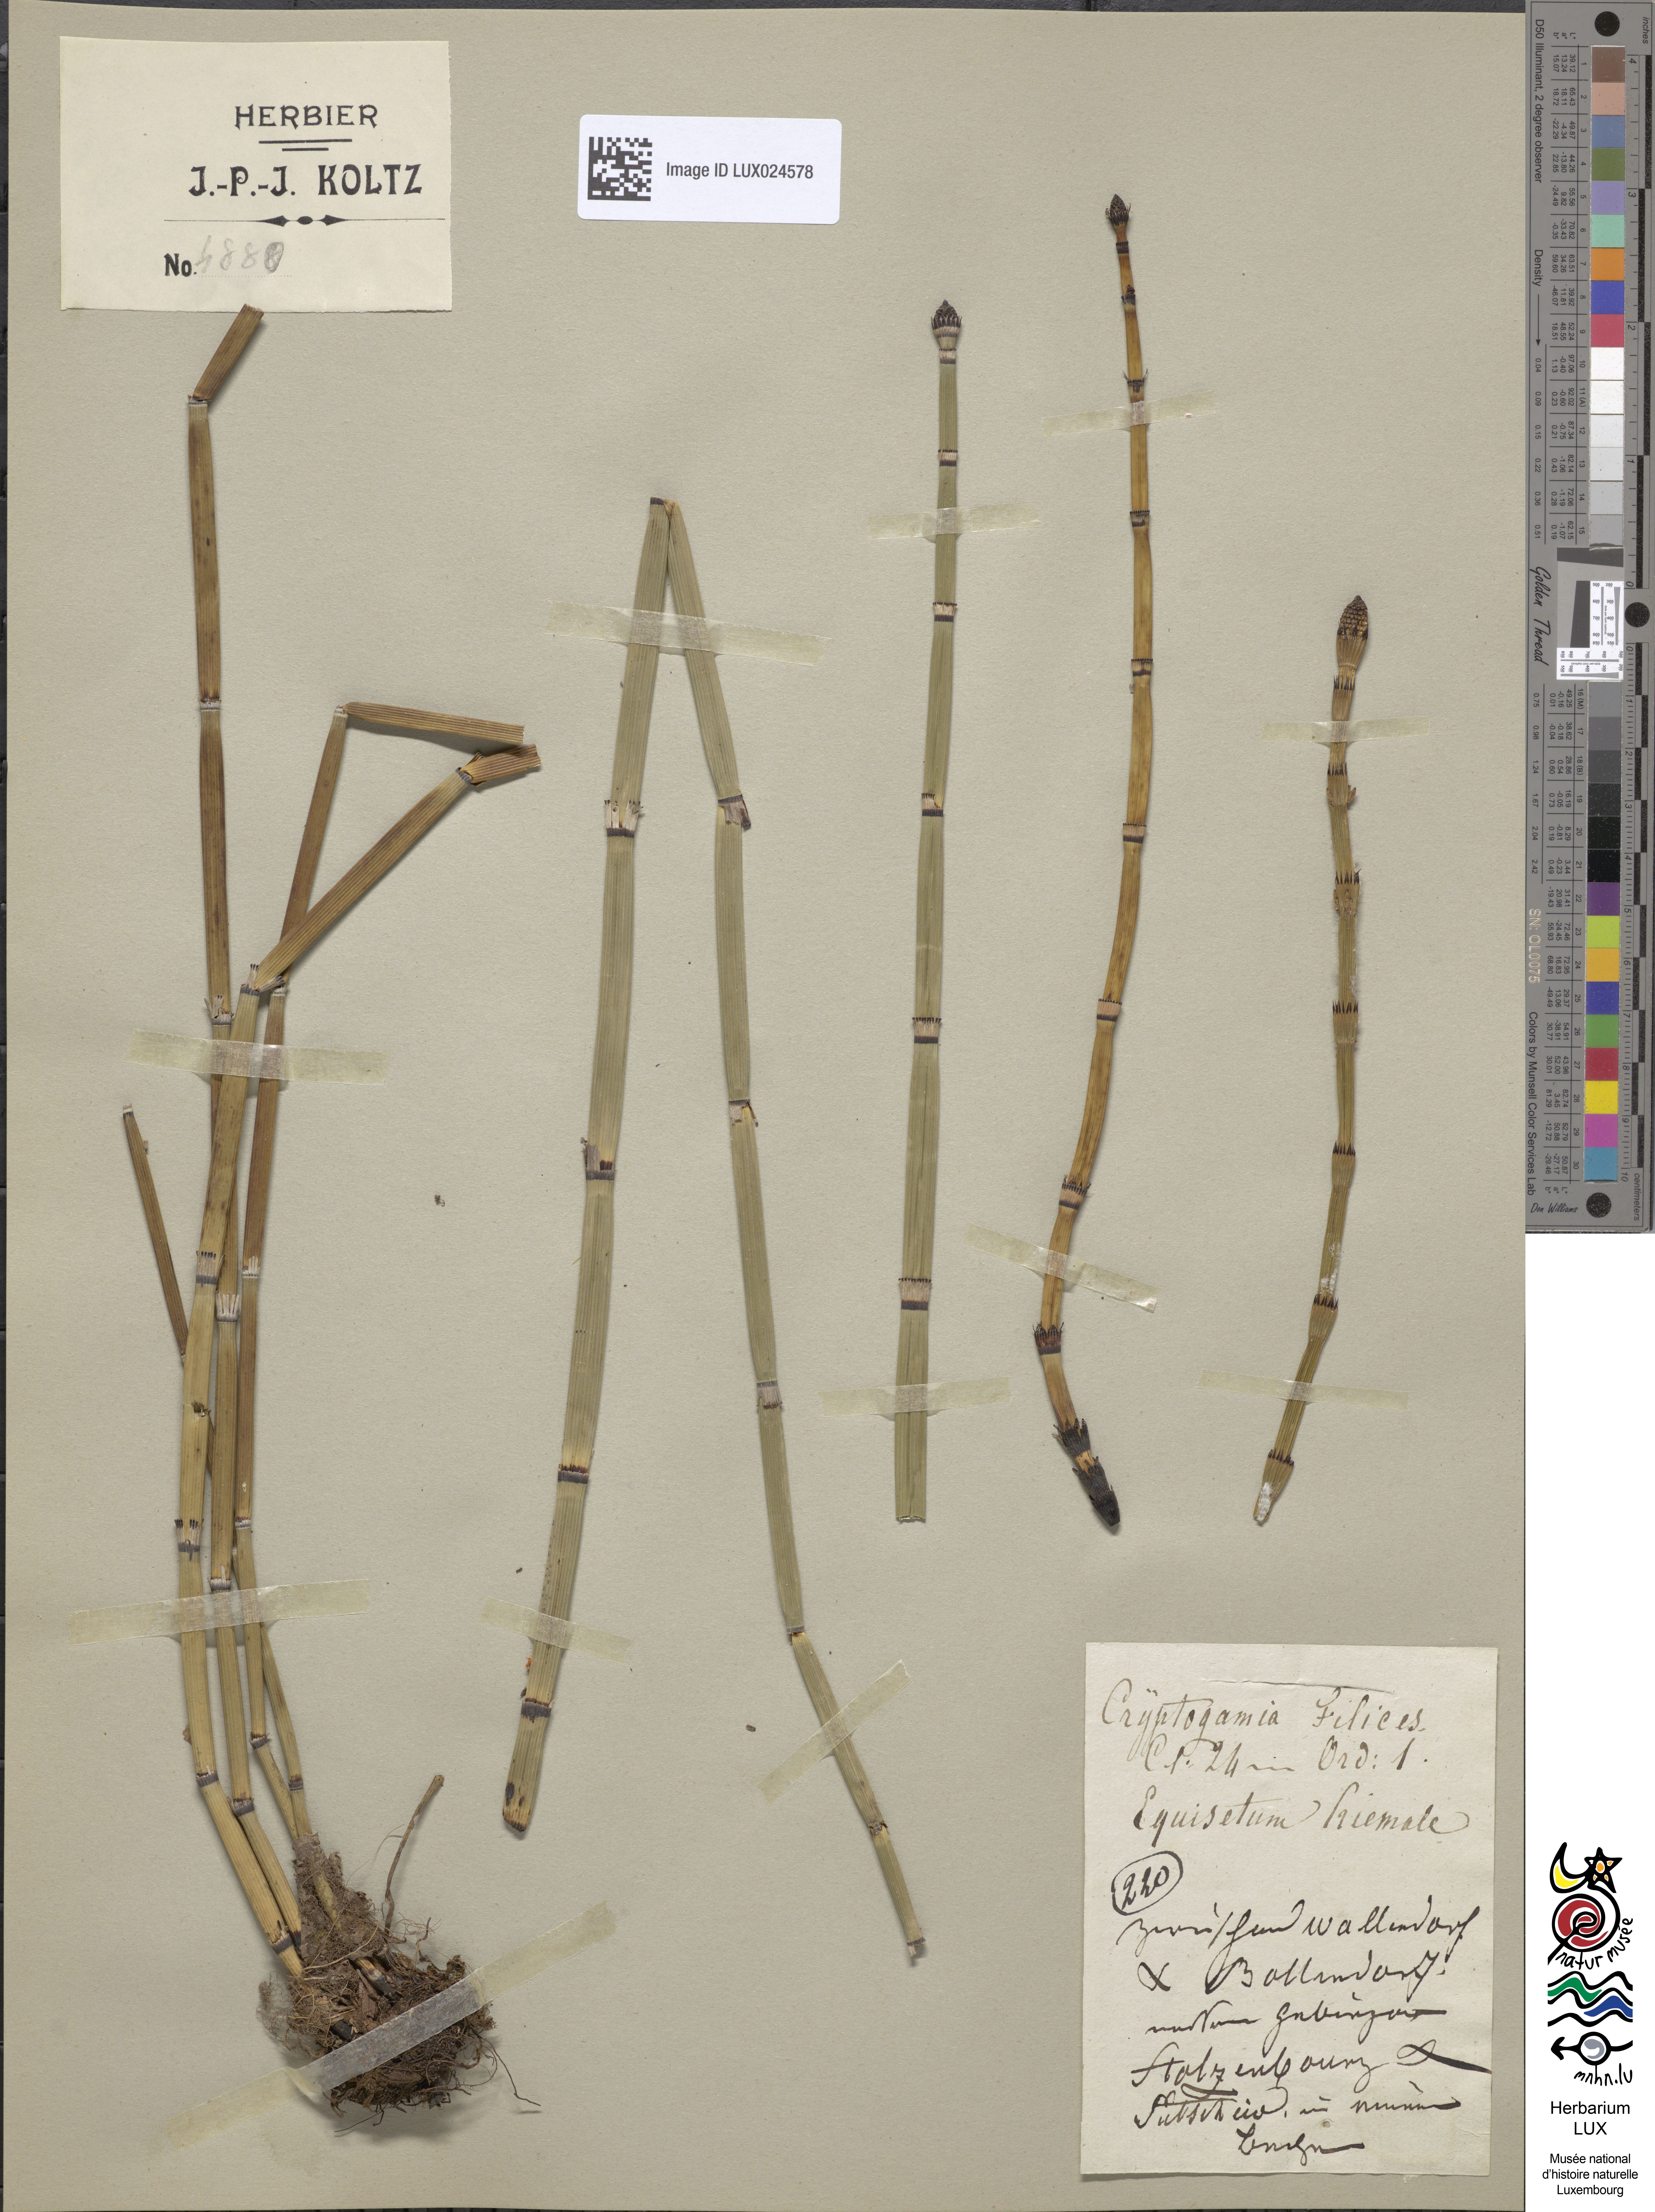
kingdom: Plantae
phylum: Tracheophyta
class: Polypodiopsida
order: Equisetales
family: Equisetaceae
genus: Equisetum
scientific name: Equisetum hyemale
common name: Rough horsetail
